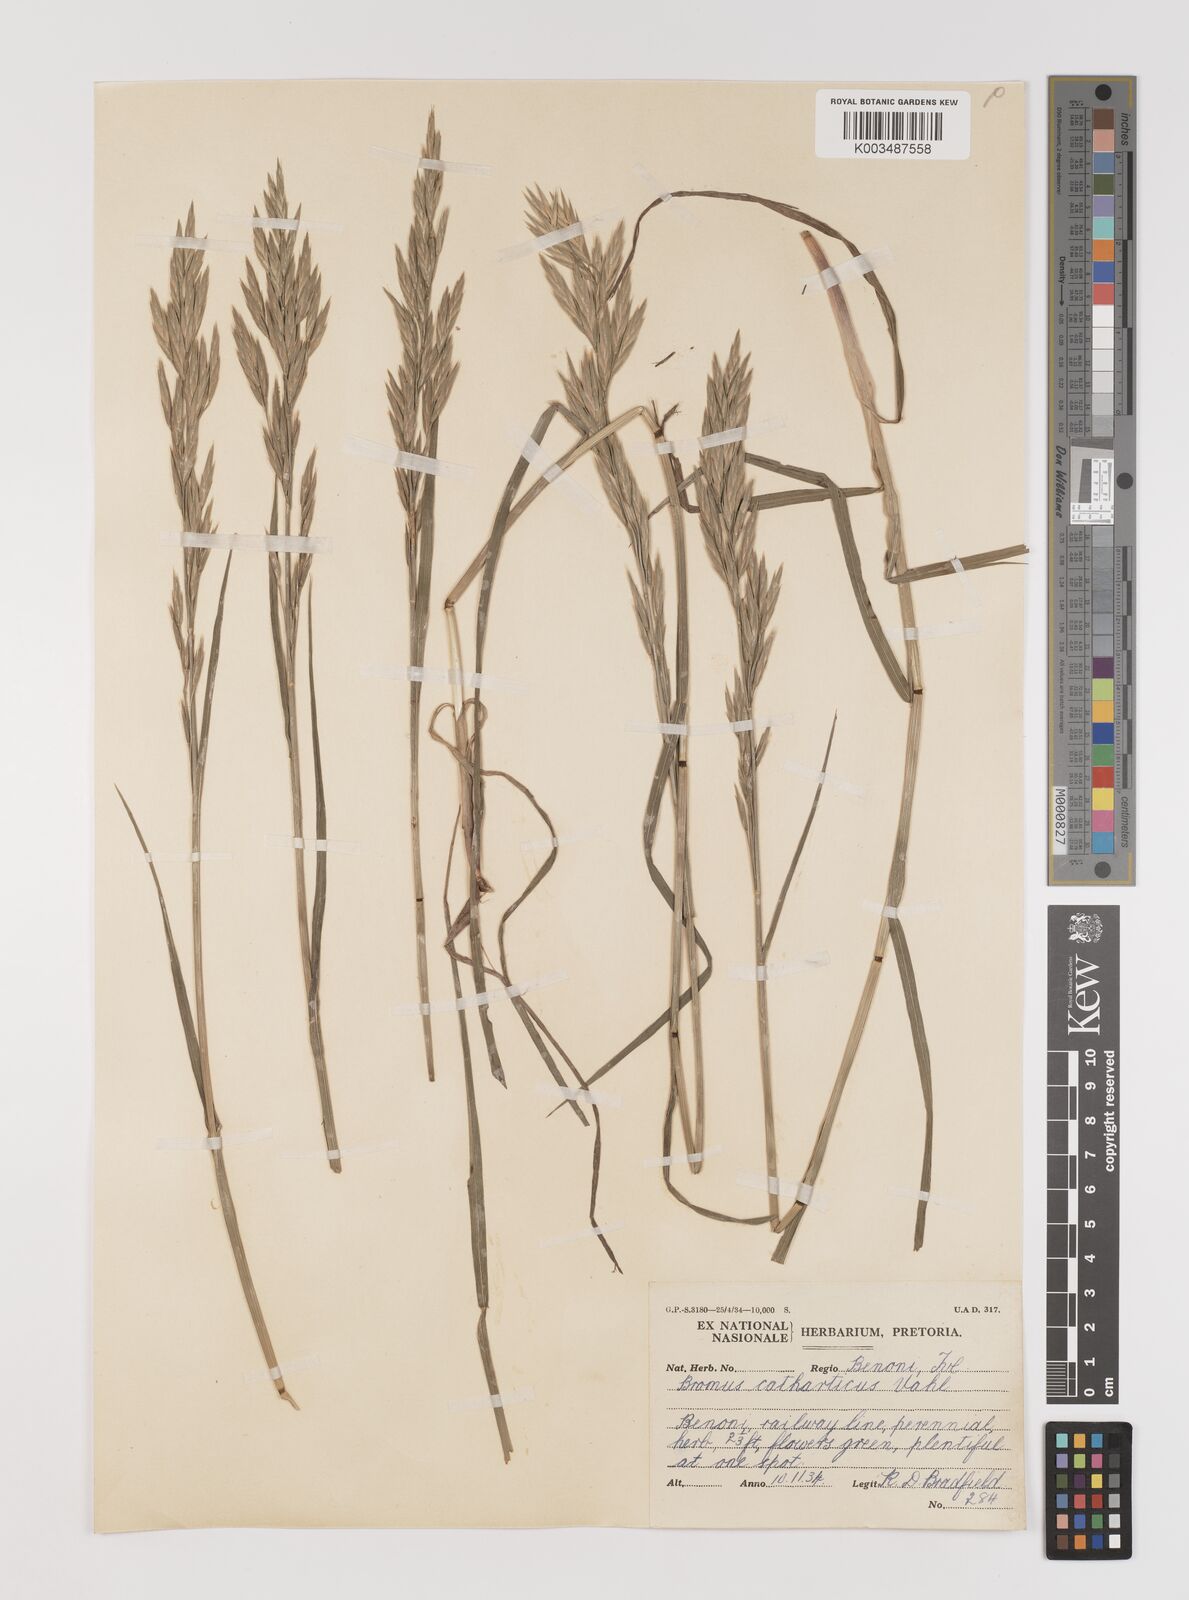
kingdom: Plantae
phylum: Tracheophyta
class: Liliopsida
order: Poales
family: Poaceae
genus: Bromus
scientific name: Bromus catharticus
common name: Rescuegrass
